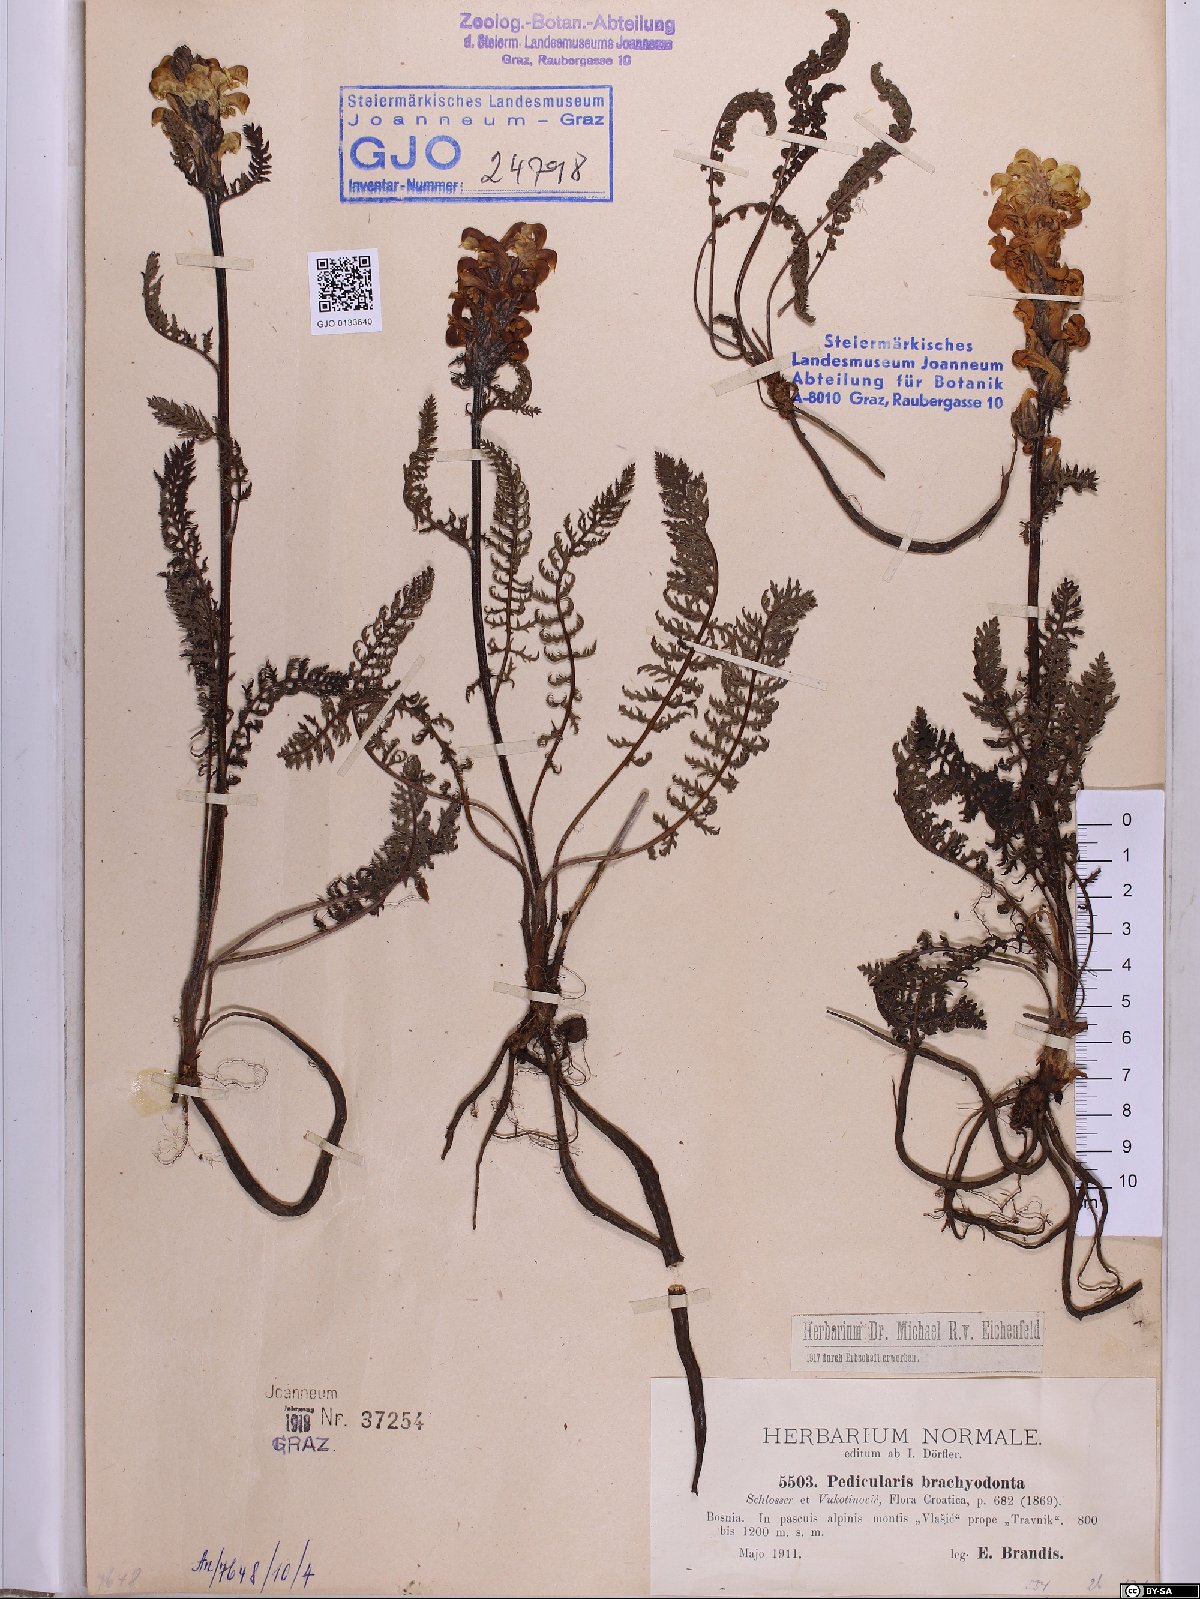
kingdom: Plantae
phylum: Tracheophyta
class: Magnoliopsida
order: Lamiales
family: Orobanchaceae
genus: Pedicularis
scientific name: Pedicularis brachyodonta
